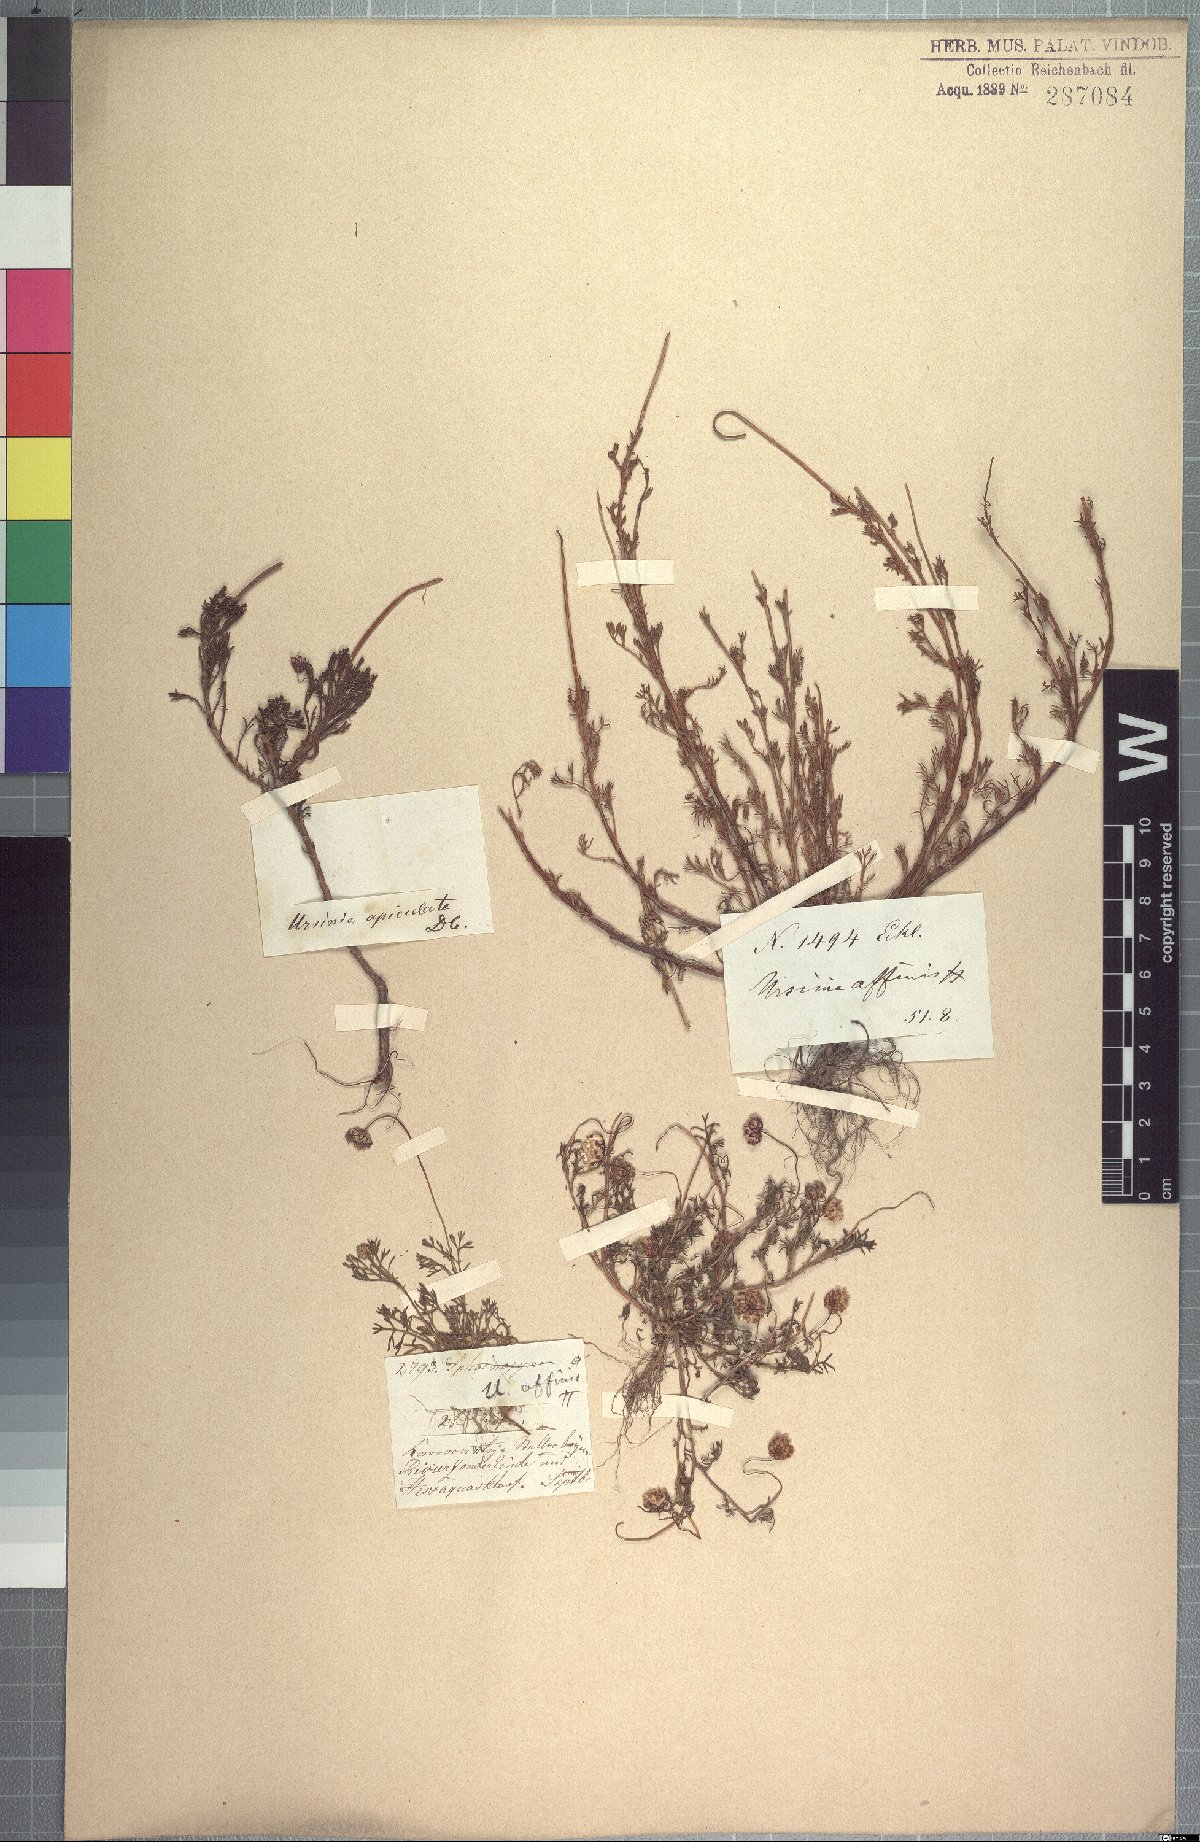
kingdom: Plantae
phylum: Tracheophyta
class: Magnoliopsida
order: Asterales
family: Asteraceae
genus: Ursinia
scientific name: Ursinia nana
